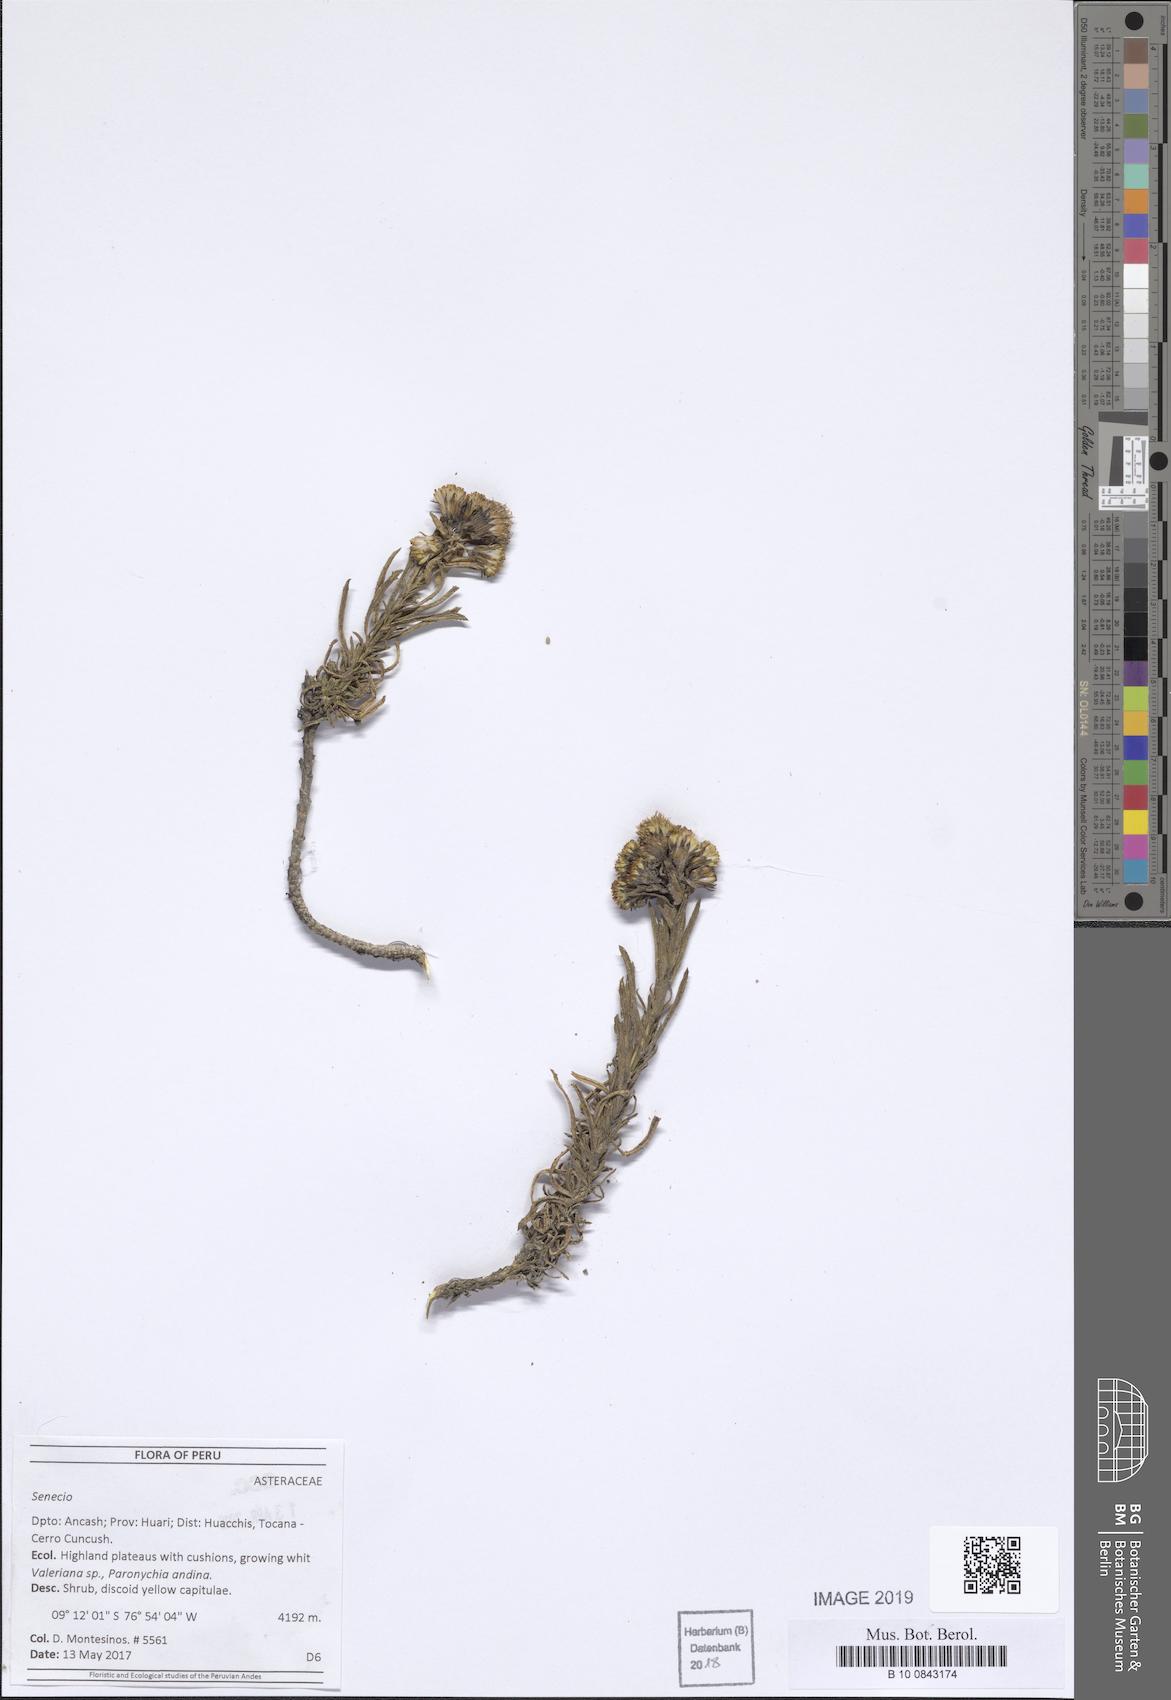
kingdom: Plantae
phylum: Tracheophyta
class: Magnoliopsida
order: Asterales
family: Asteraceae
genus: Senecio
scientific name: Senecio collinus
